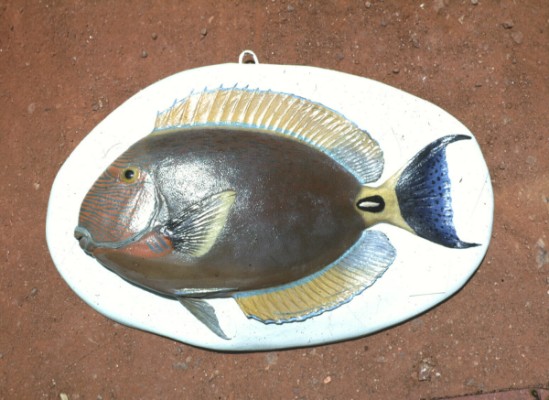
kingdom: Animalia
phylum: Chordata
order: Perciformes
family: Acanthuridae
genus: Acanthurus
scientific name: Acanthurus dussumieri
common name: Dussumier's surgeonfish
